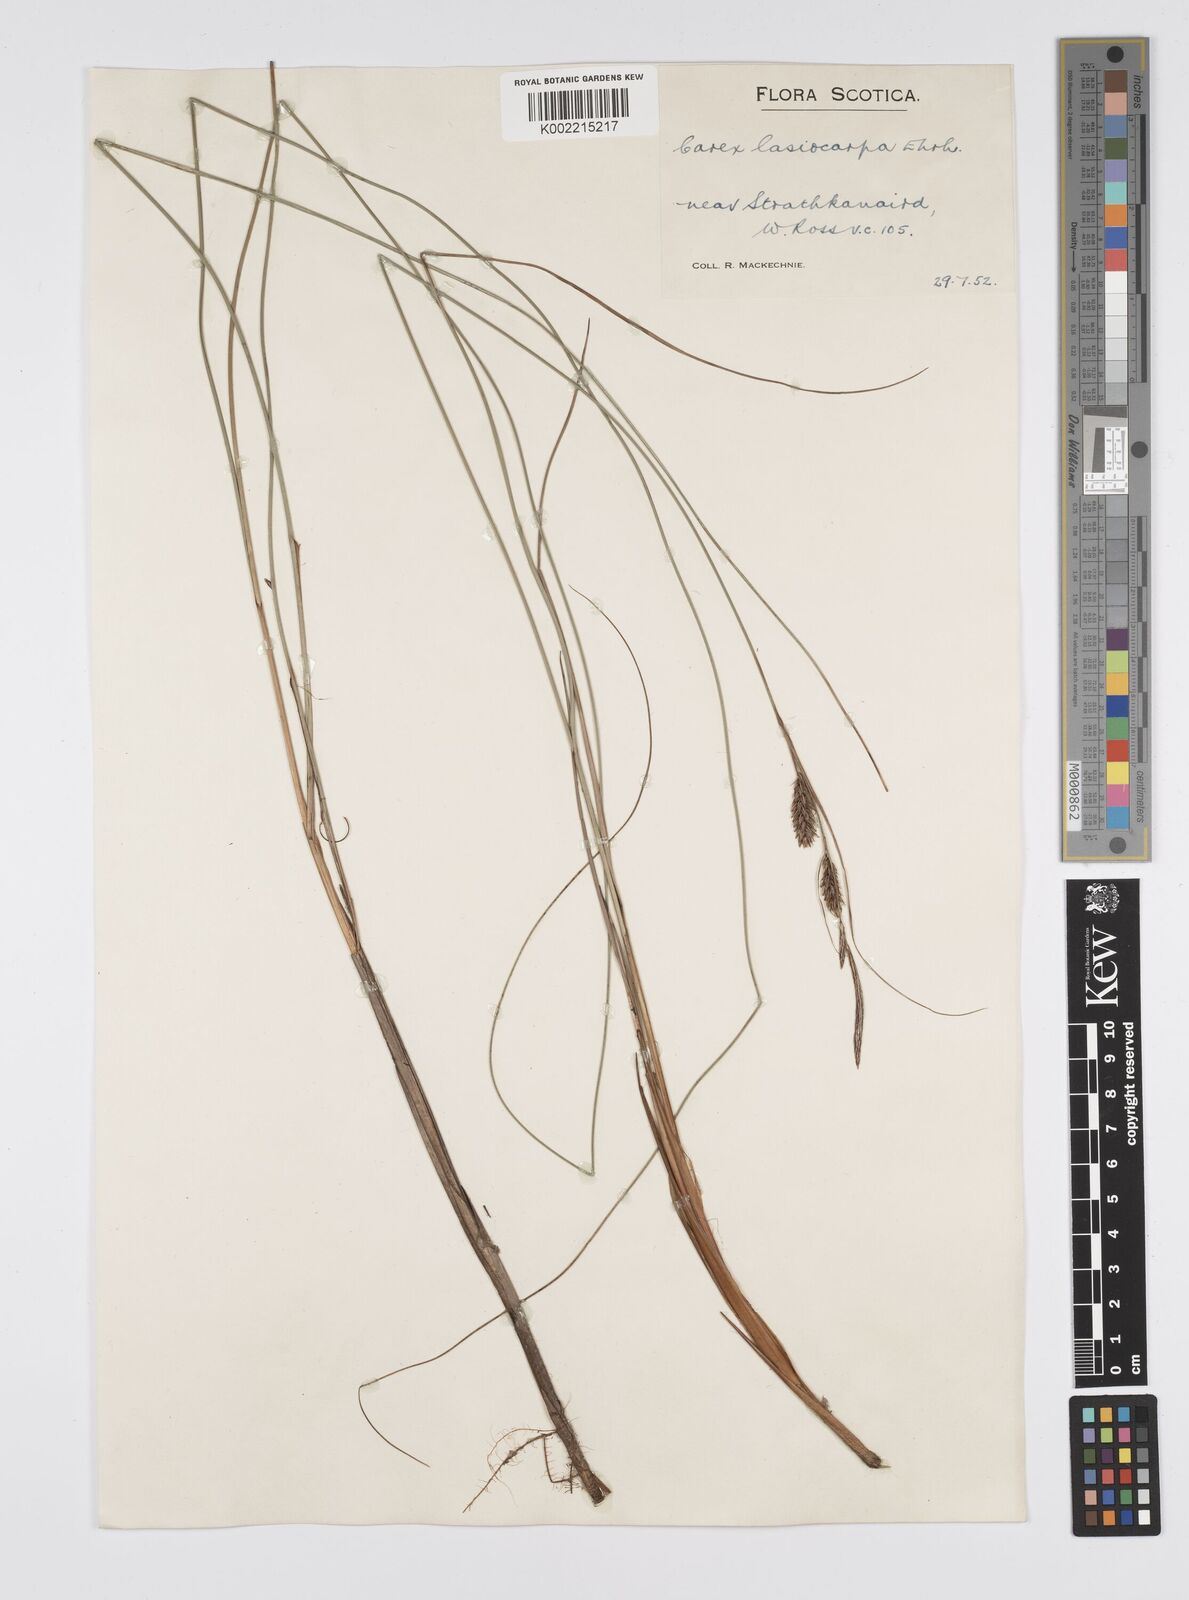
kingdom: Plantae
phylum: Tracheophyta
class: Liliopsida
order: Poales
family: Cyperaceae
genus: Carex
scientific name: Carex lasiocarpa
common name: Slender sedge
